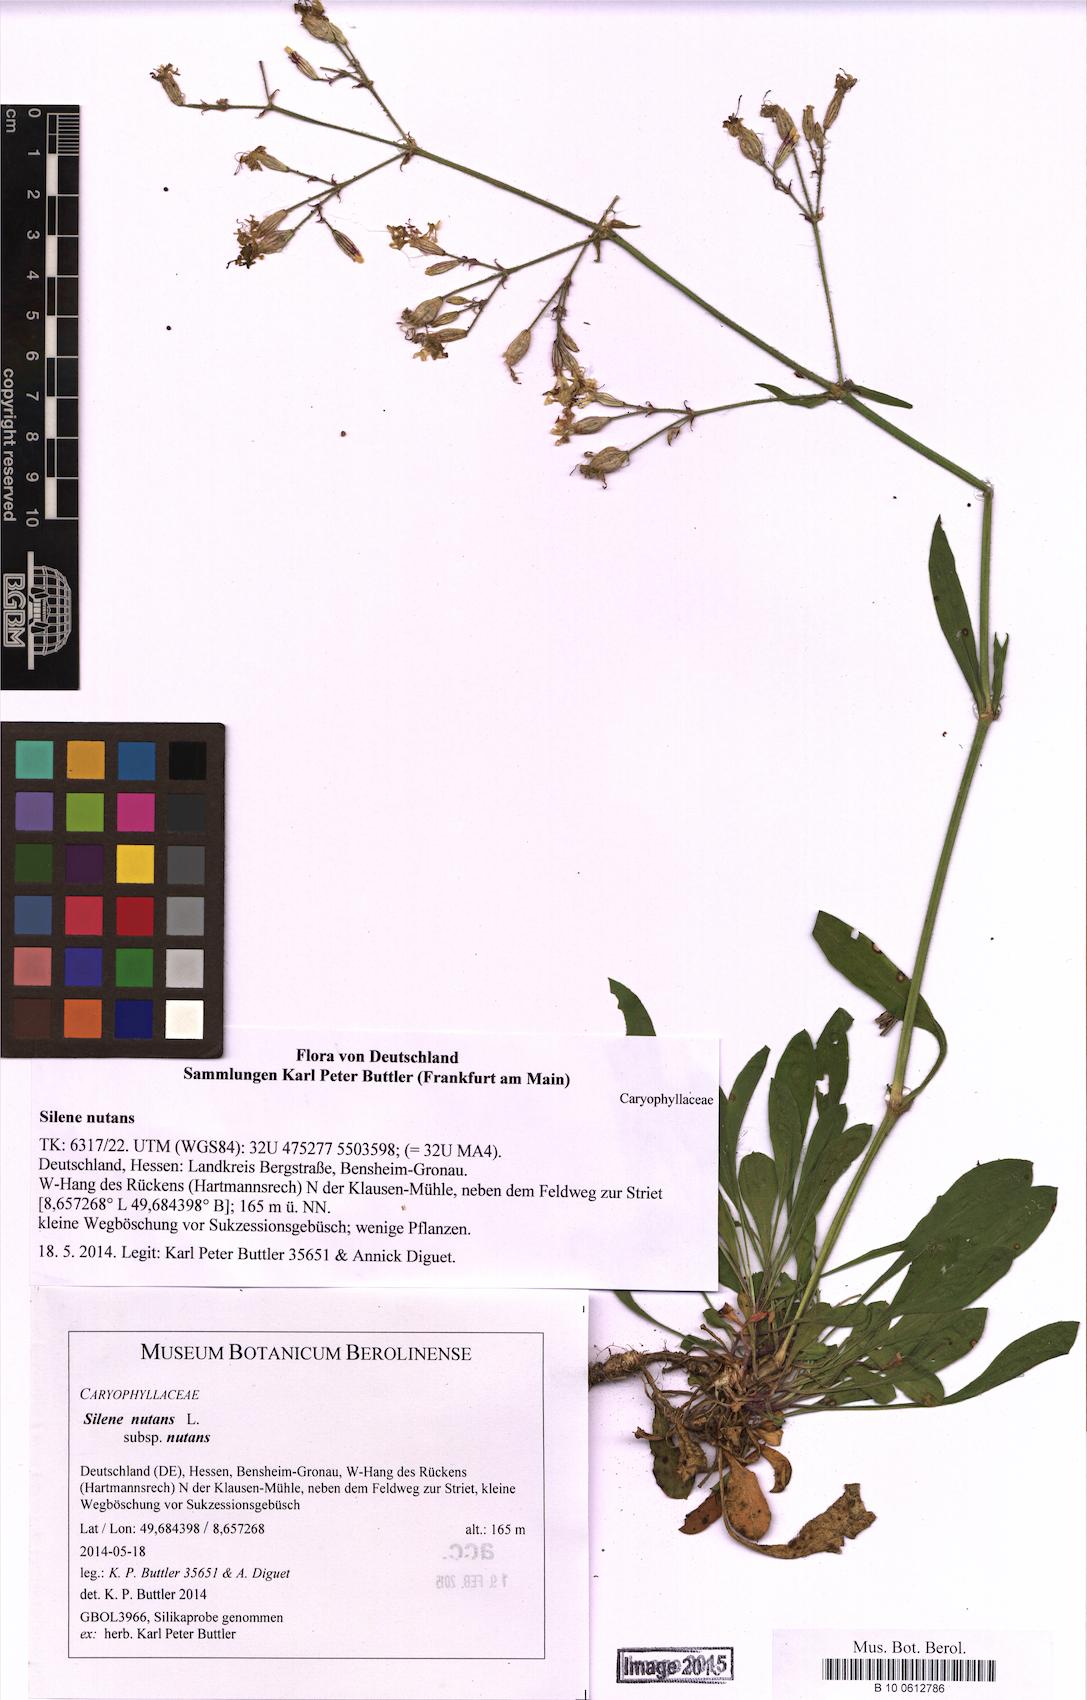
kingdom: Plantae
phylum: Tracheophyta
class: Magnoliopsida
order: Caryophyllales
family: Caryophyllaceae
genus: Silene
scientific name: Silene nutans
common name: Nottingham catchfly
